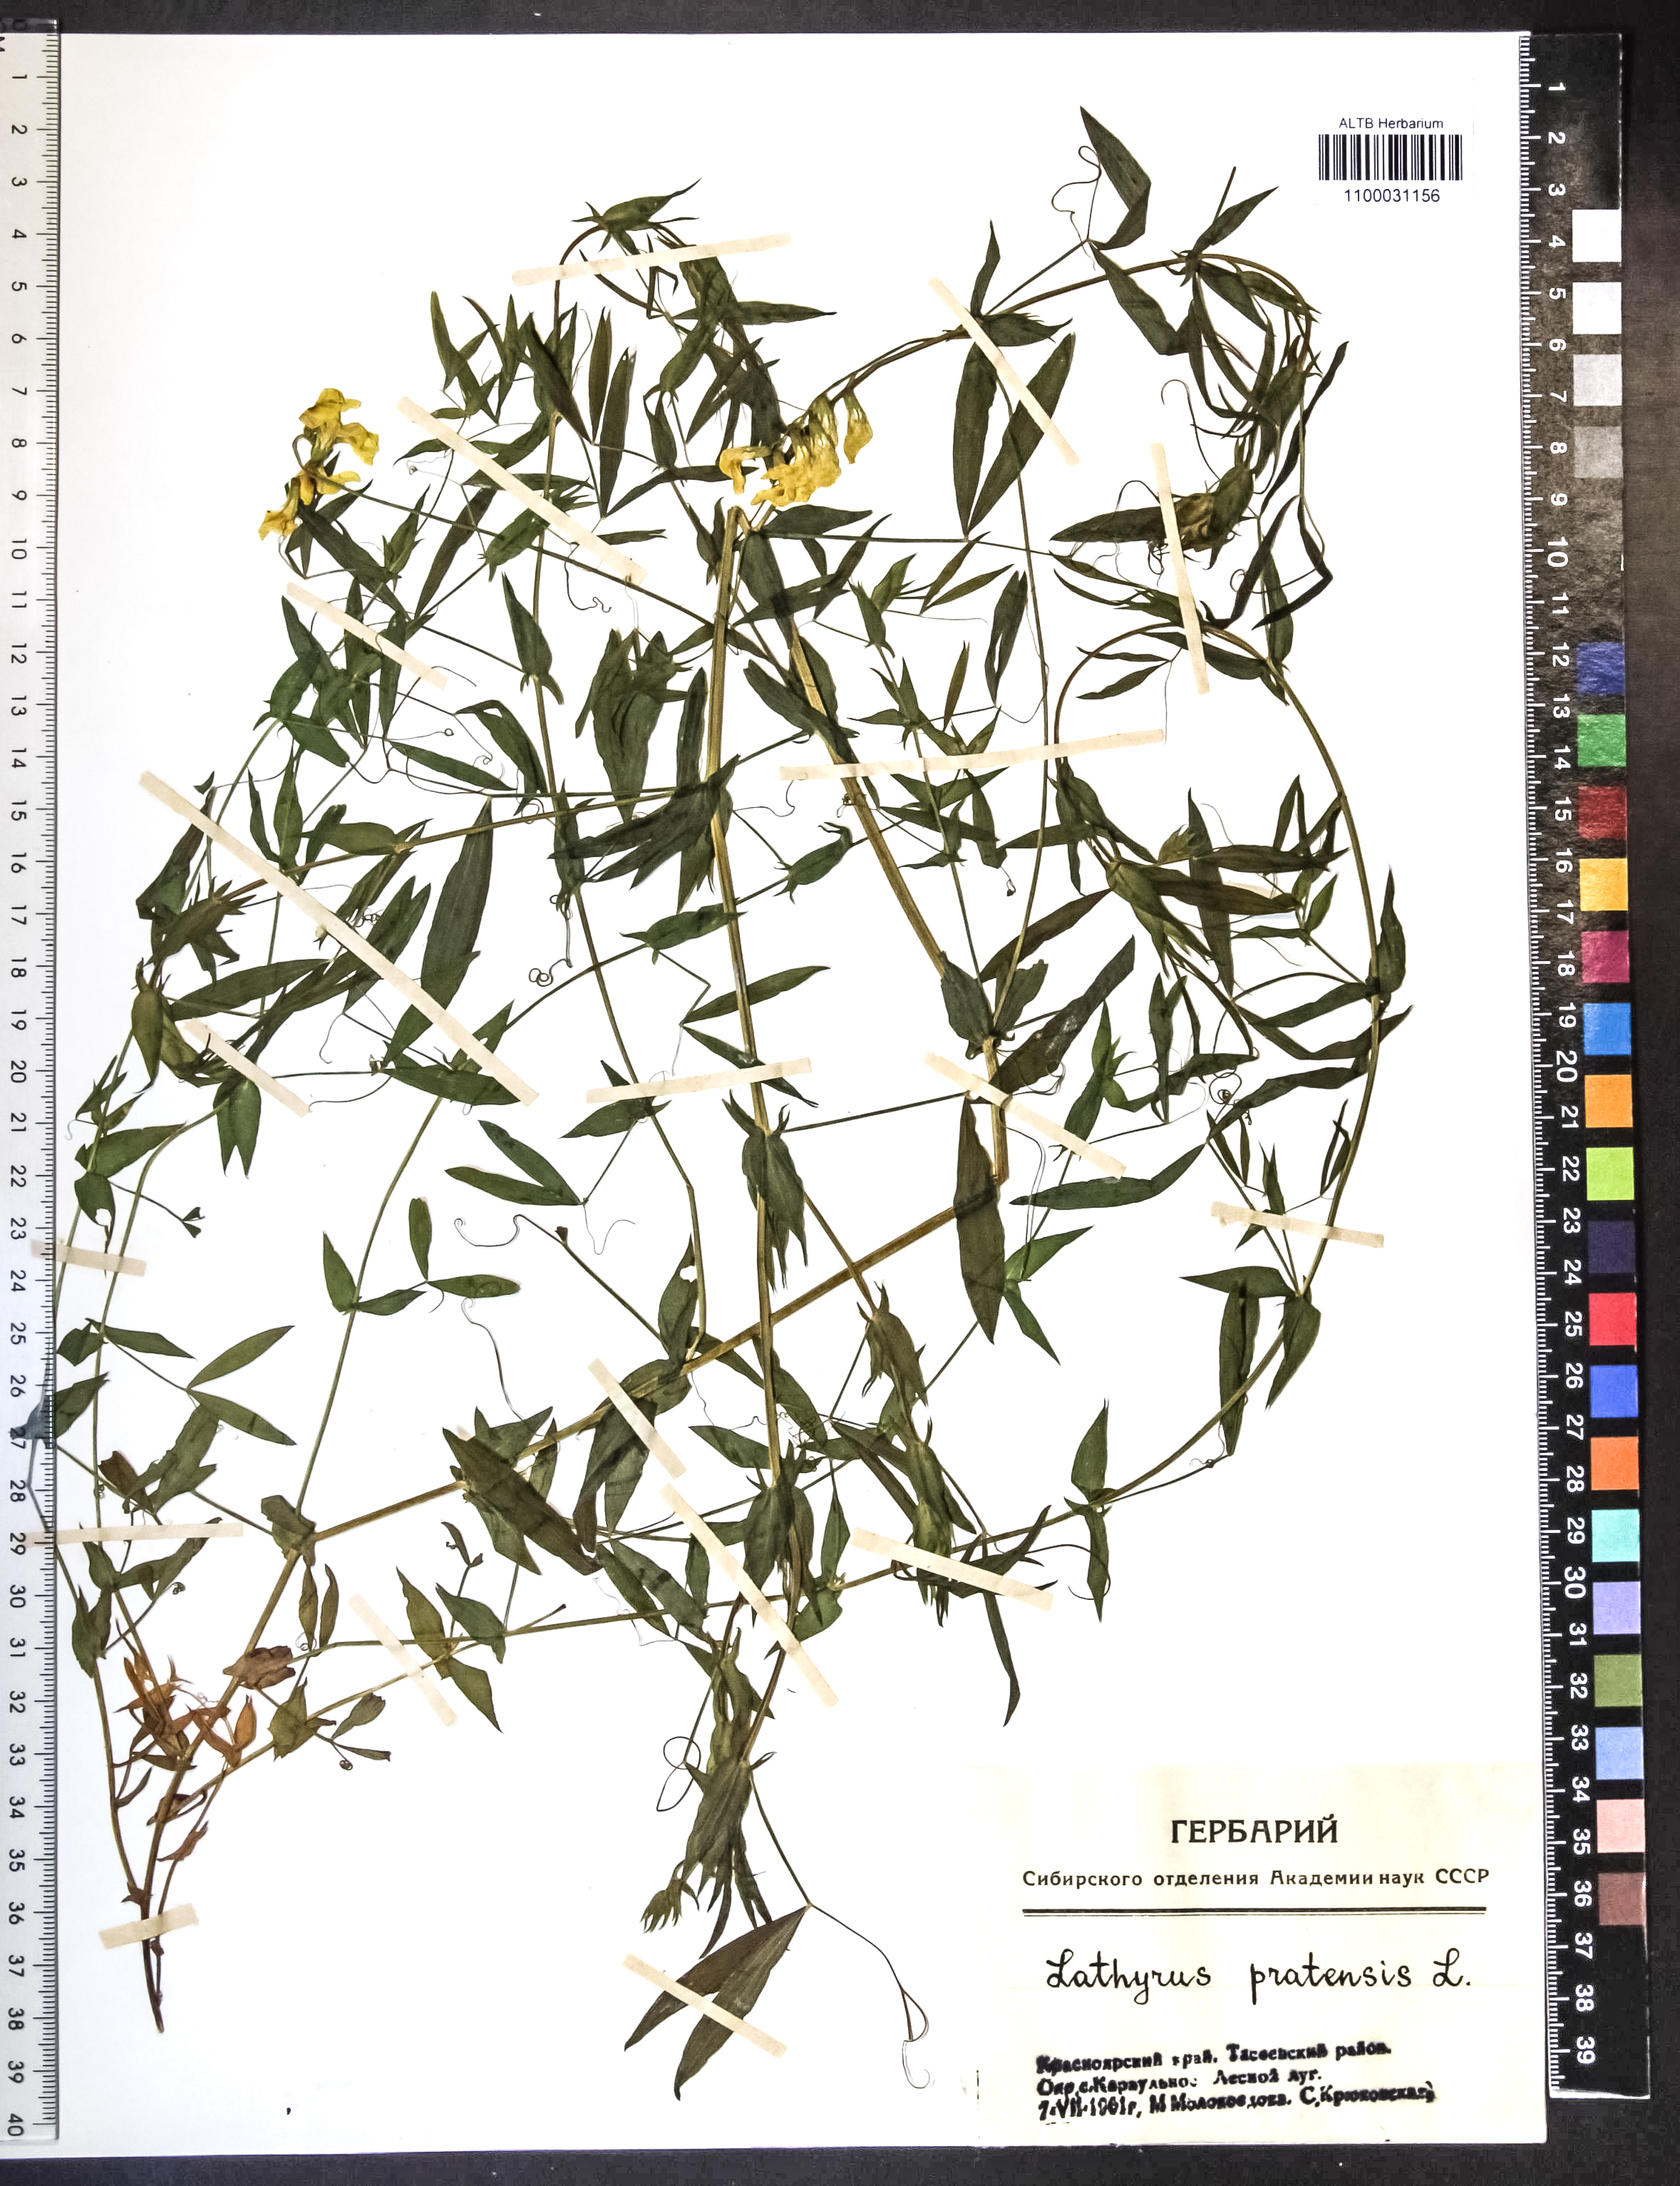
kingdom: Plantae
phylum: Tracheophyta
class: Magnoliopsida
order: Fabales
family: Fabaceae
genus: Lathyrus
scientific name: Lathyrus pratensis
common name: Meadow vetchling
